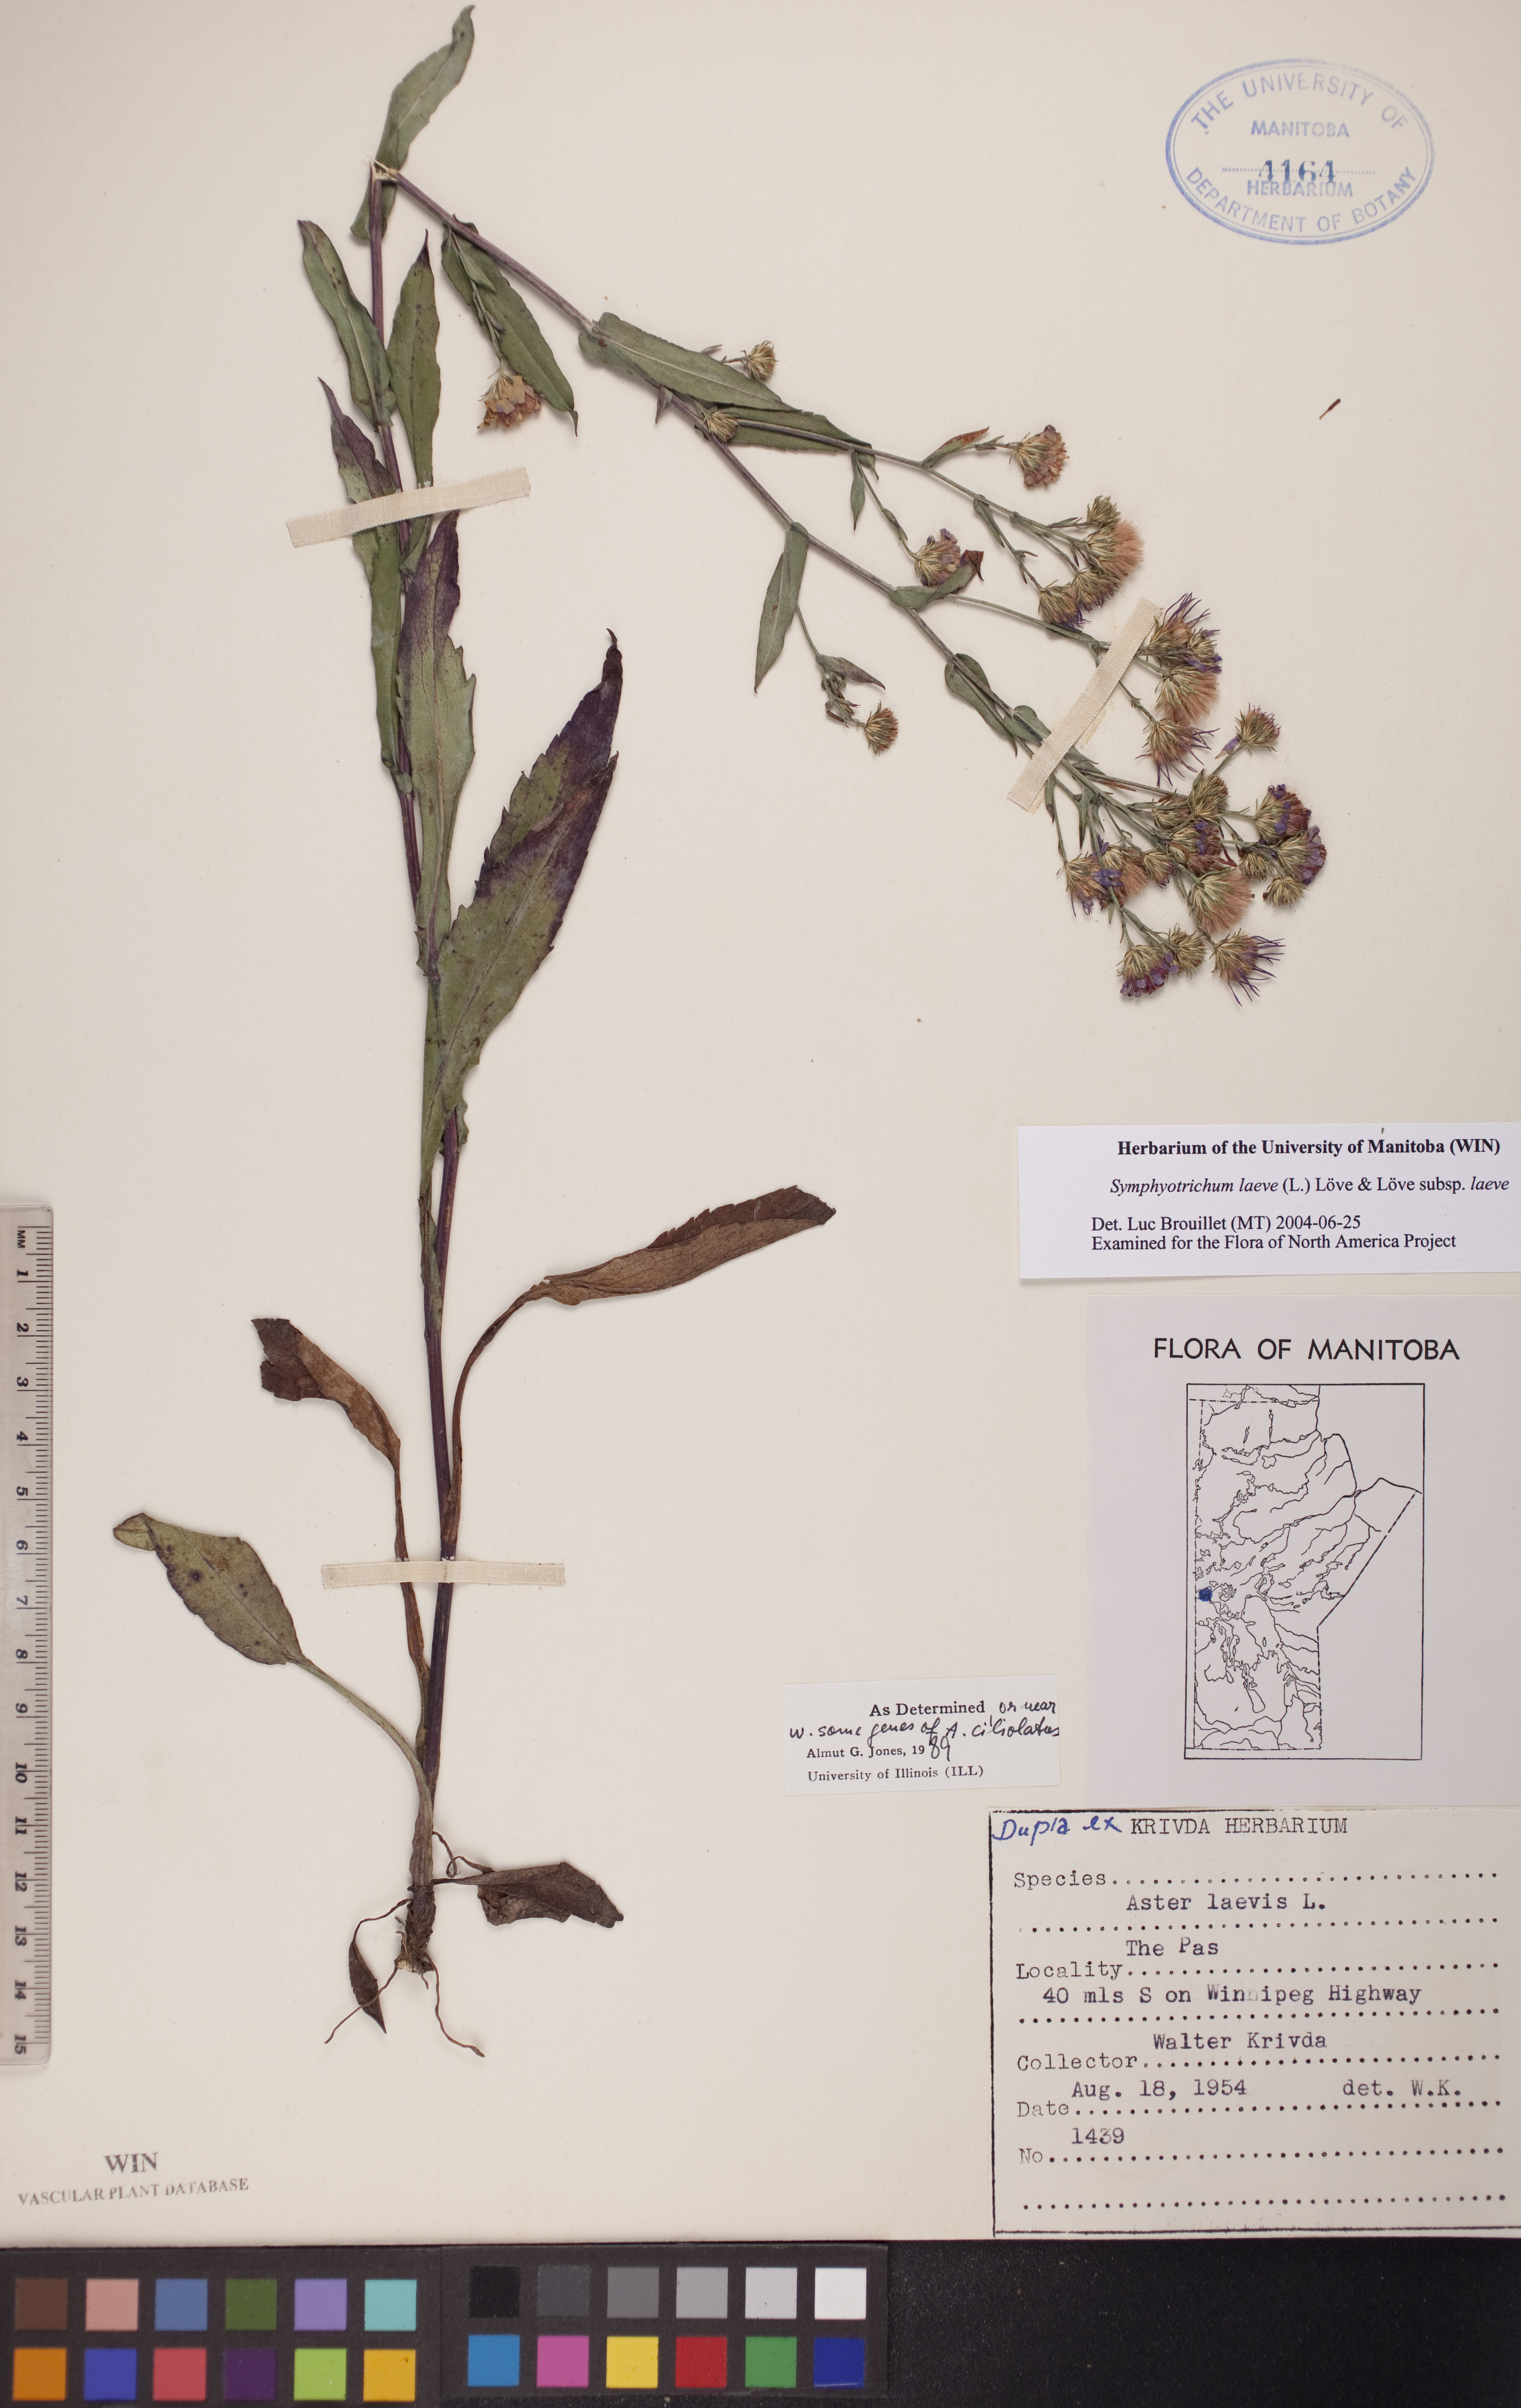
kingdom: Plantae
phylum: Tracheophyta
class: Magnoliopsida
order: Asterales
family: Asteraceae
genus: Symphyotrichum
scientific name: Symphyotrichum laeve
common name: Glaucous aster
